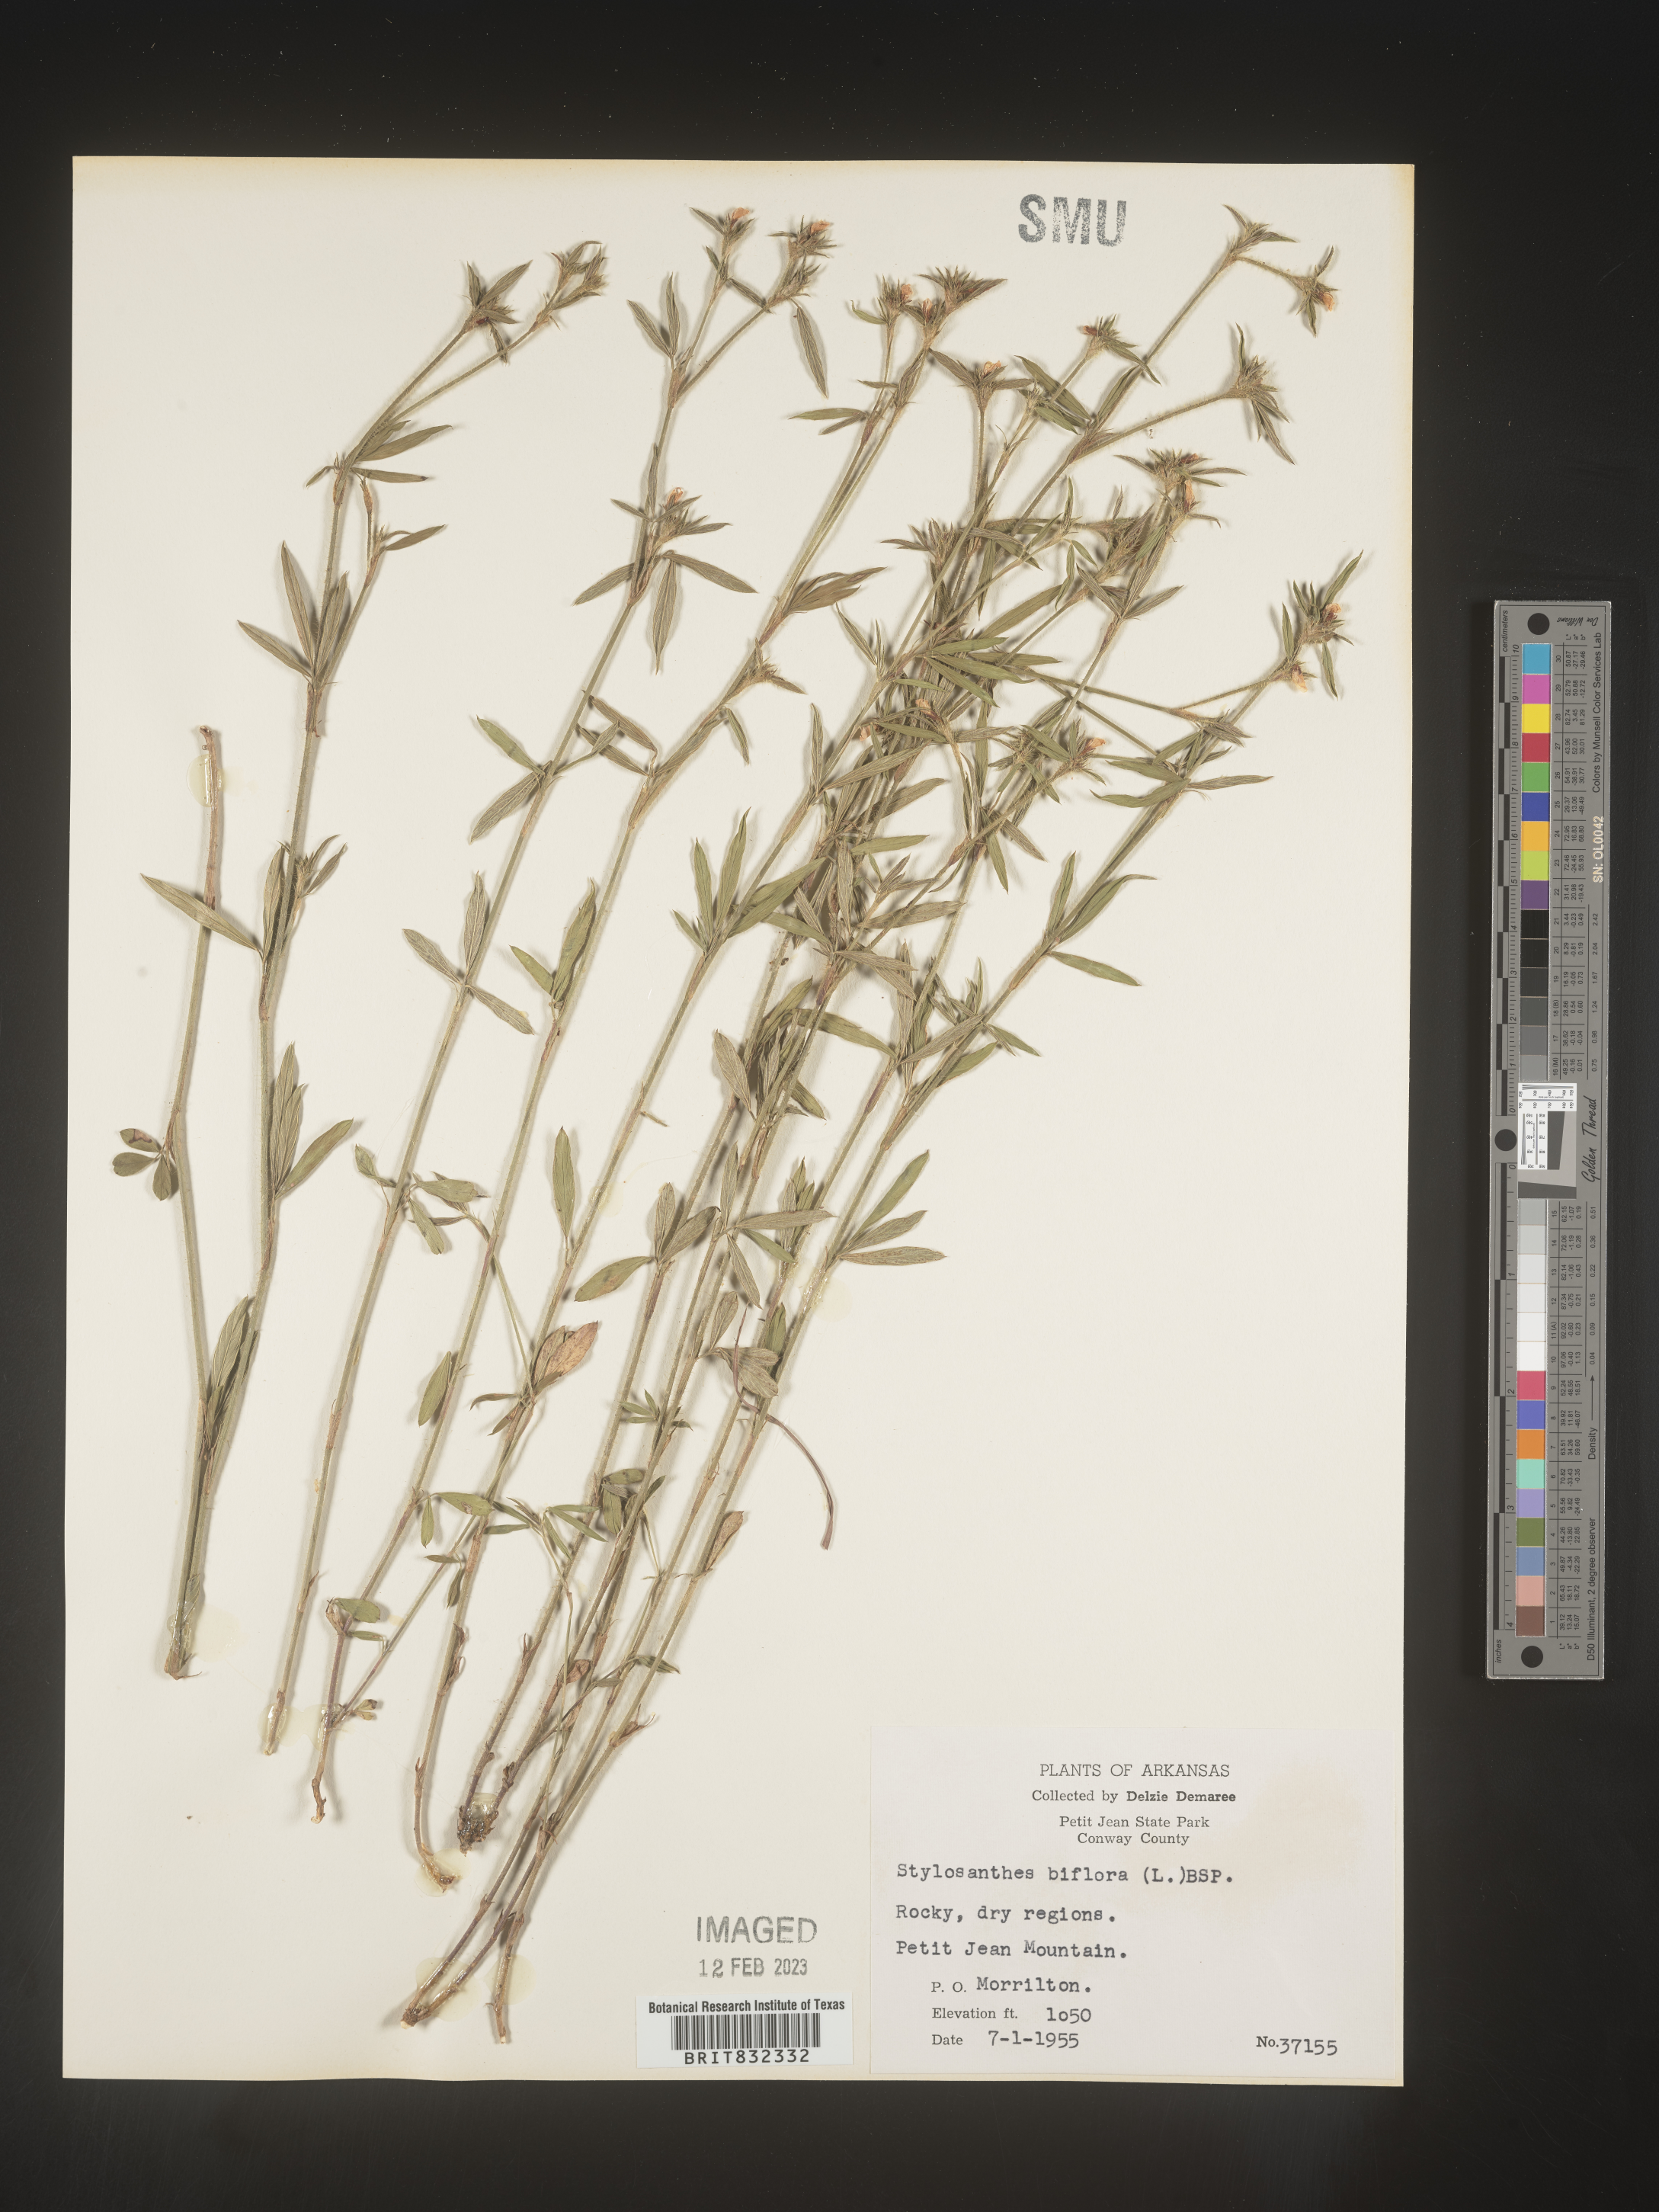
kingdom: Plantae
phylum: Tracheophyta
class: Magnoliopsida
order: Fabales
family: Fabaceae
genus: Stylosanthes
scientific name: Stylosanthes biflora
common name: Two-flower pencil-flower
